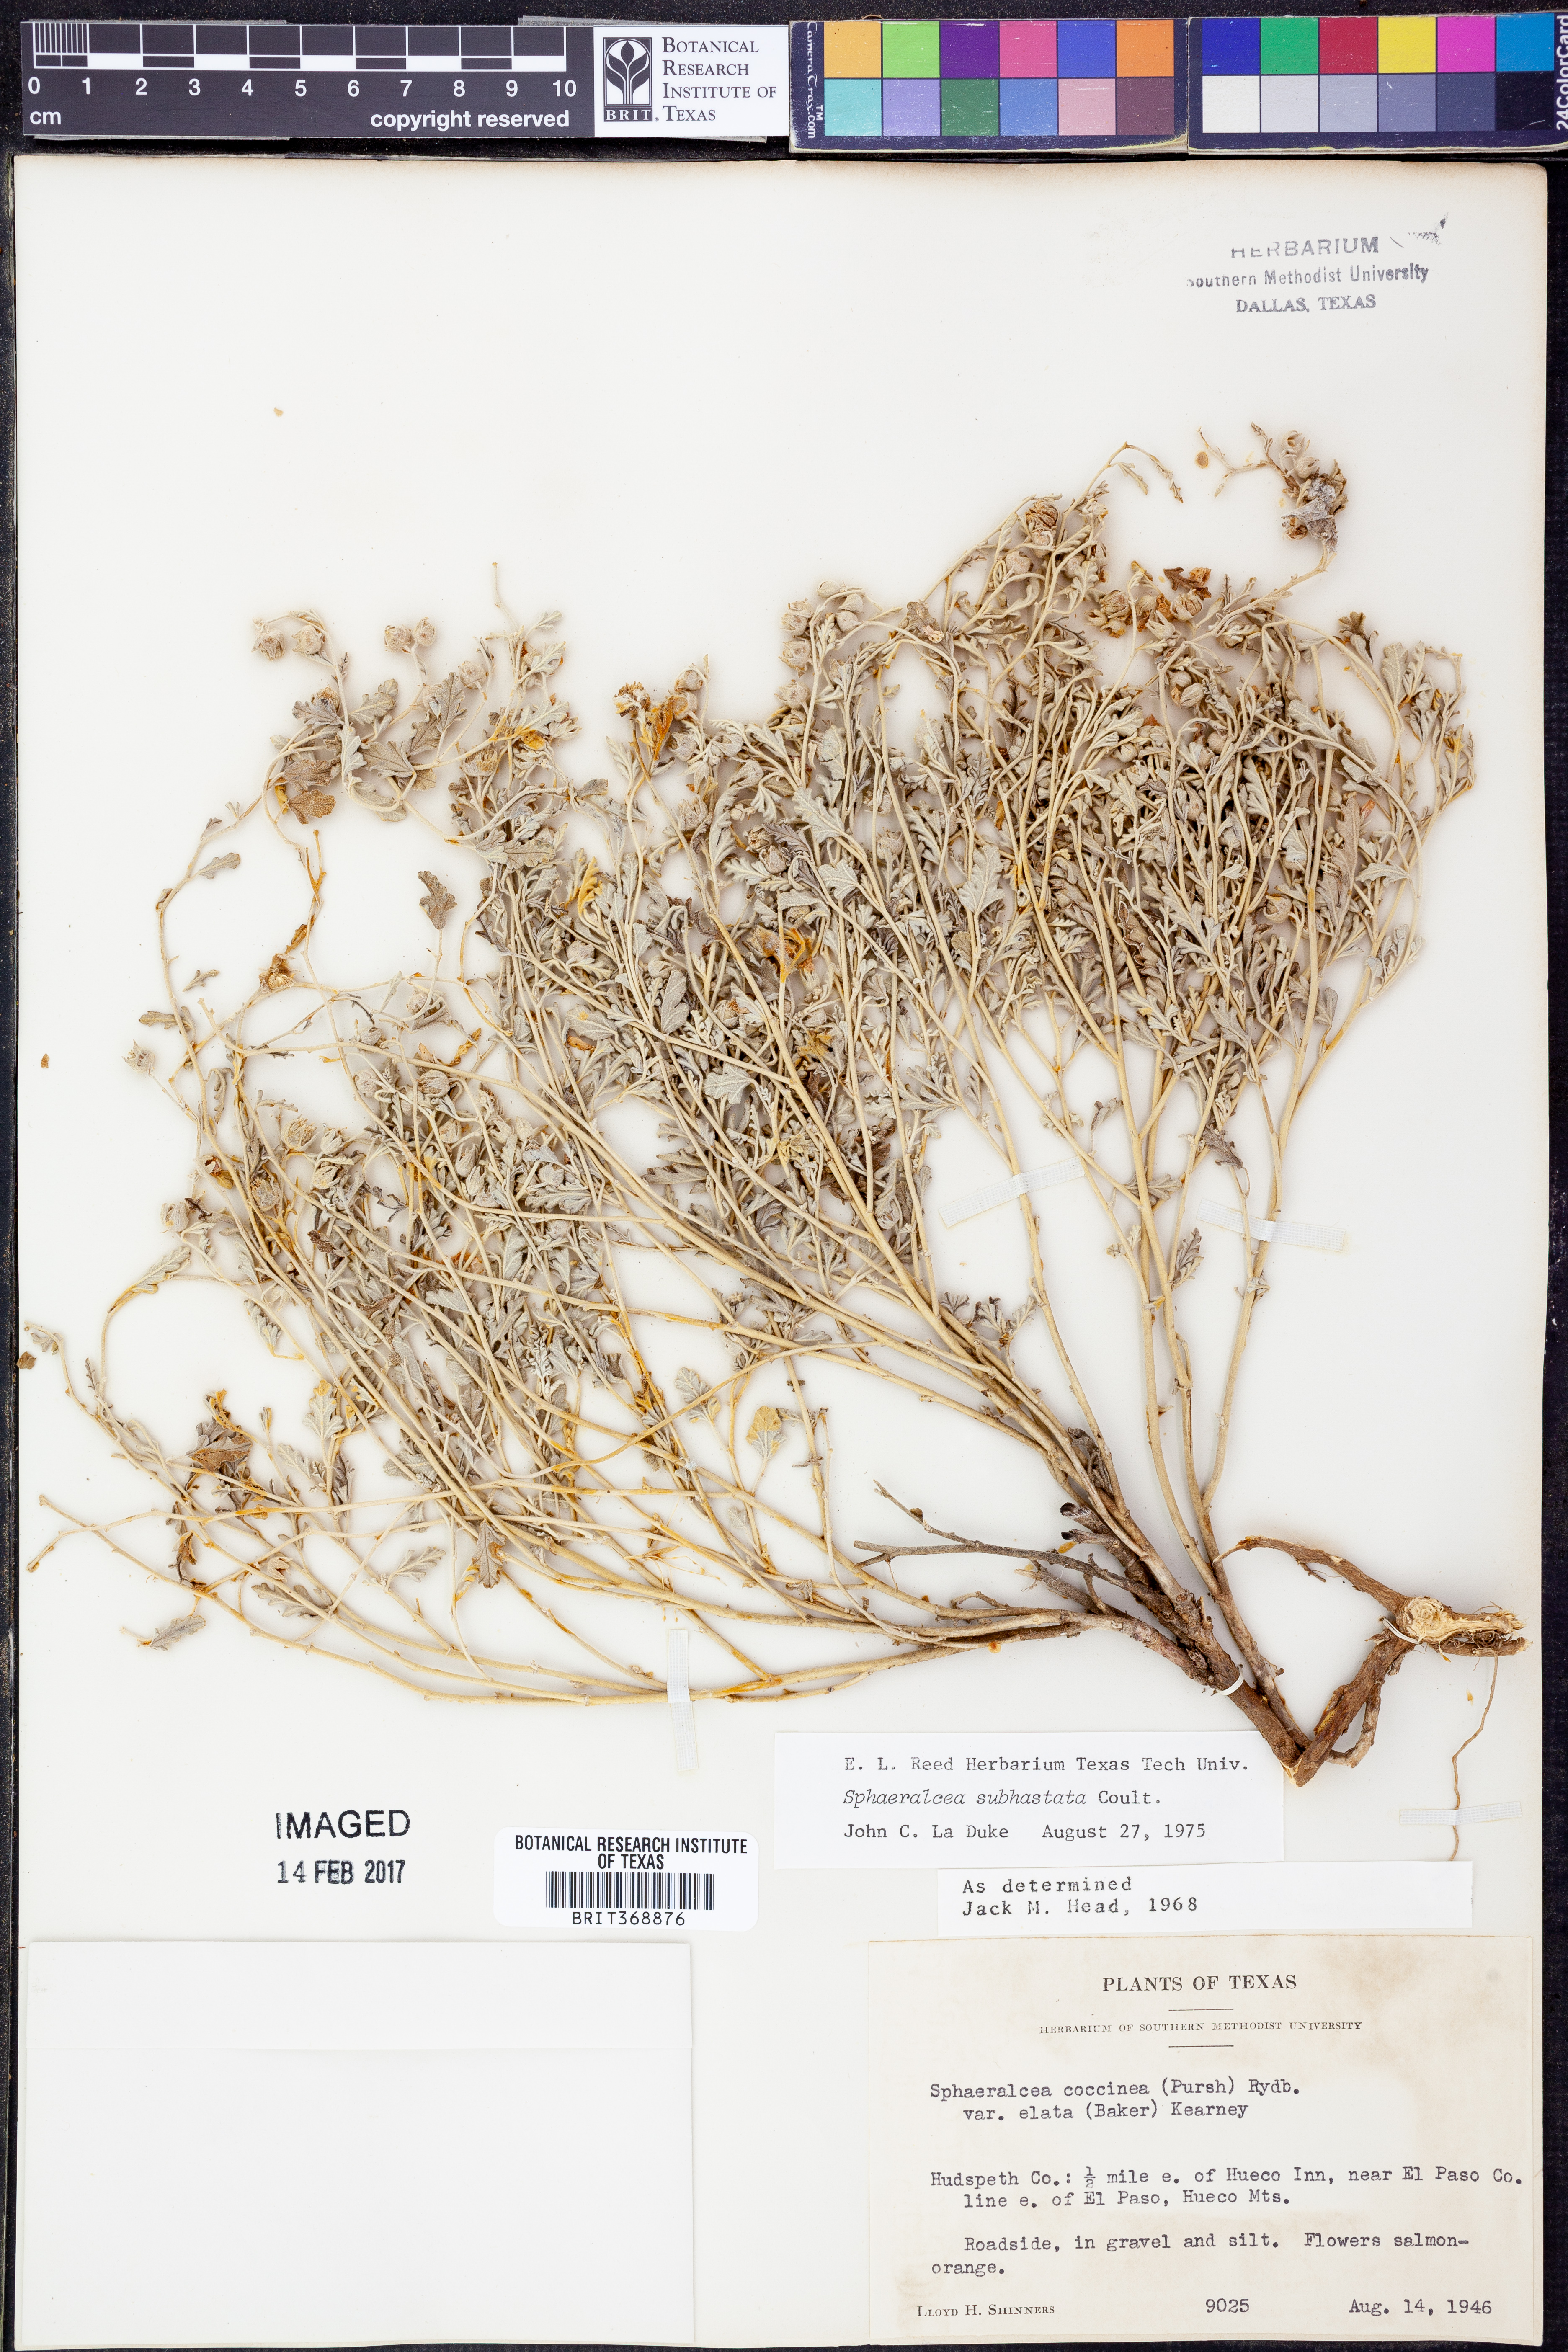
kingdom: Plantae
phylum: Tracheophyta
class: Magnoliopsida
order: Malvales
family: Malvaceae
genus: Sphaeralcea
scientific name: Sphaeralcea hastulata
